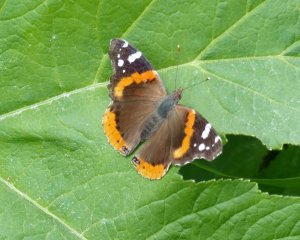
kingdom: Animalia
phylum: Arthropoda
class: Insecta
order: Lepidoptera
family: Nymphalidae
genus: Vanessa
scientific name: Vanessa atalanta
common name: Red Admiral
